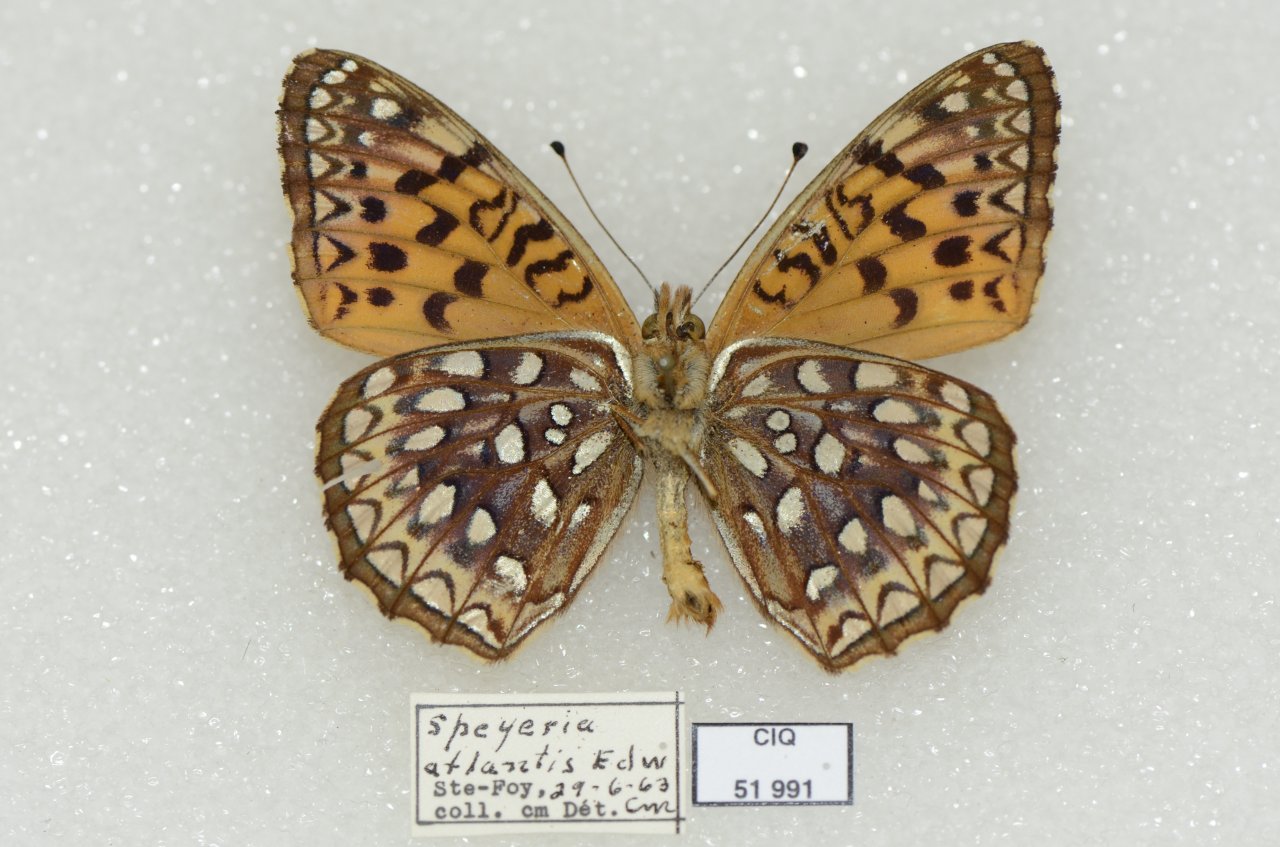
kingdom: Animalia
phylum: Arthropoda
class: Insecta
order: Lepidoptera
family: Nymphalidae
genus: Speyeria
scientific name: Speyeria atlantis
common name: Atlantis Fritillary
